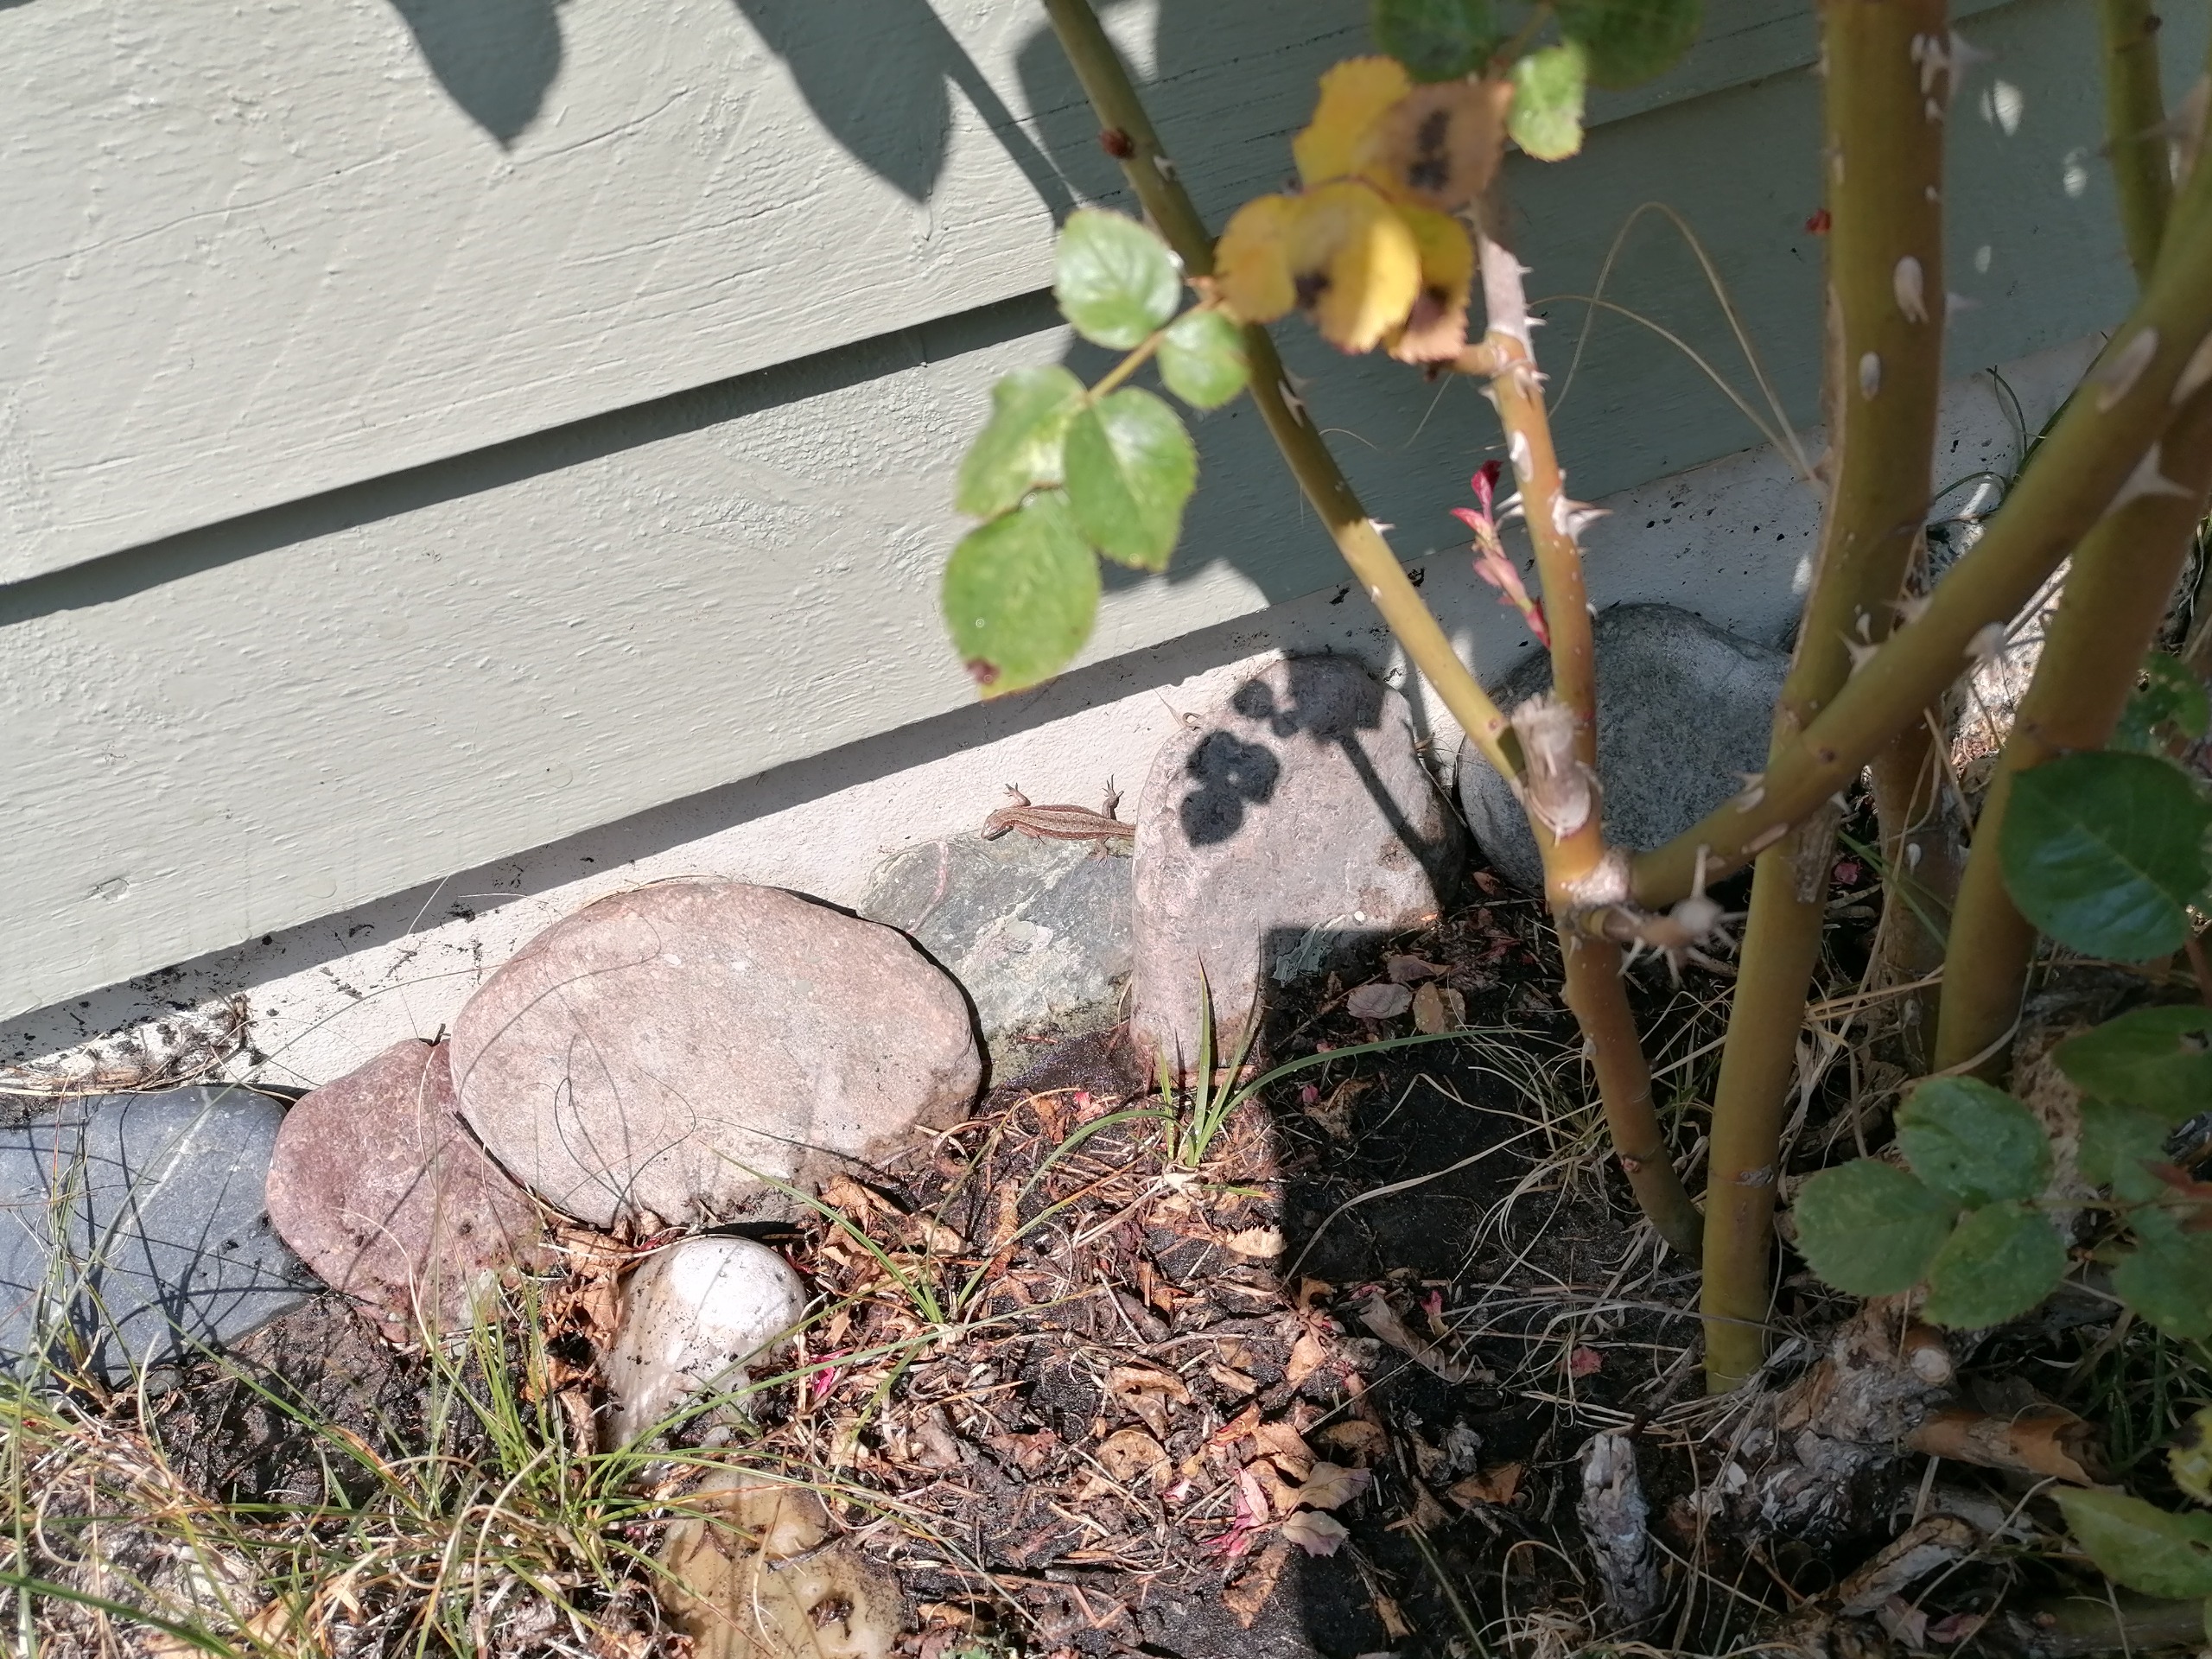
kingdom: Animalia
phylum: Chordata
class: Squamata
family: Lacertidae
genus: Zootoca
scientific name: Zootoca vivipara
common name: Skovfirben
